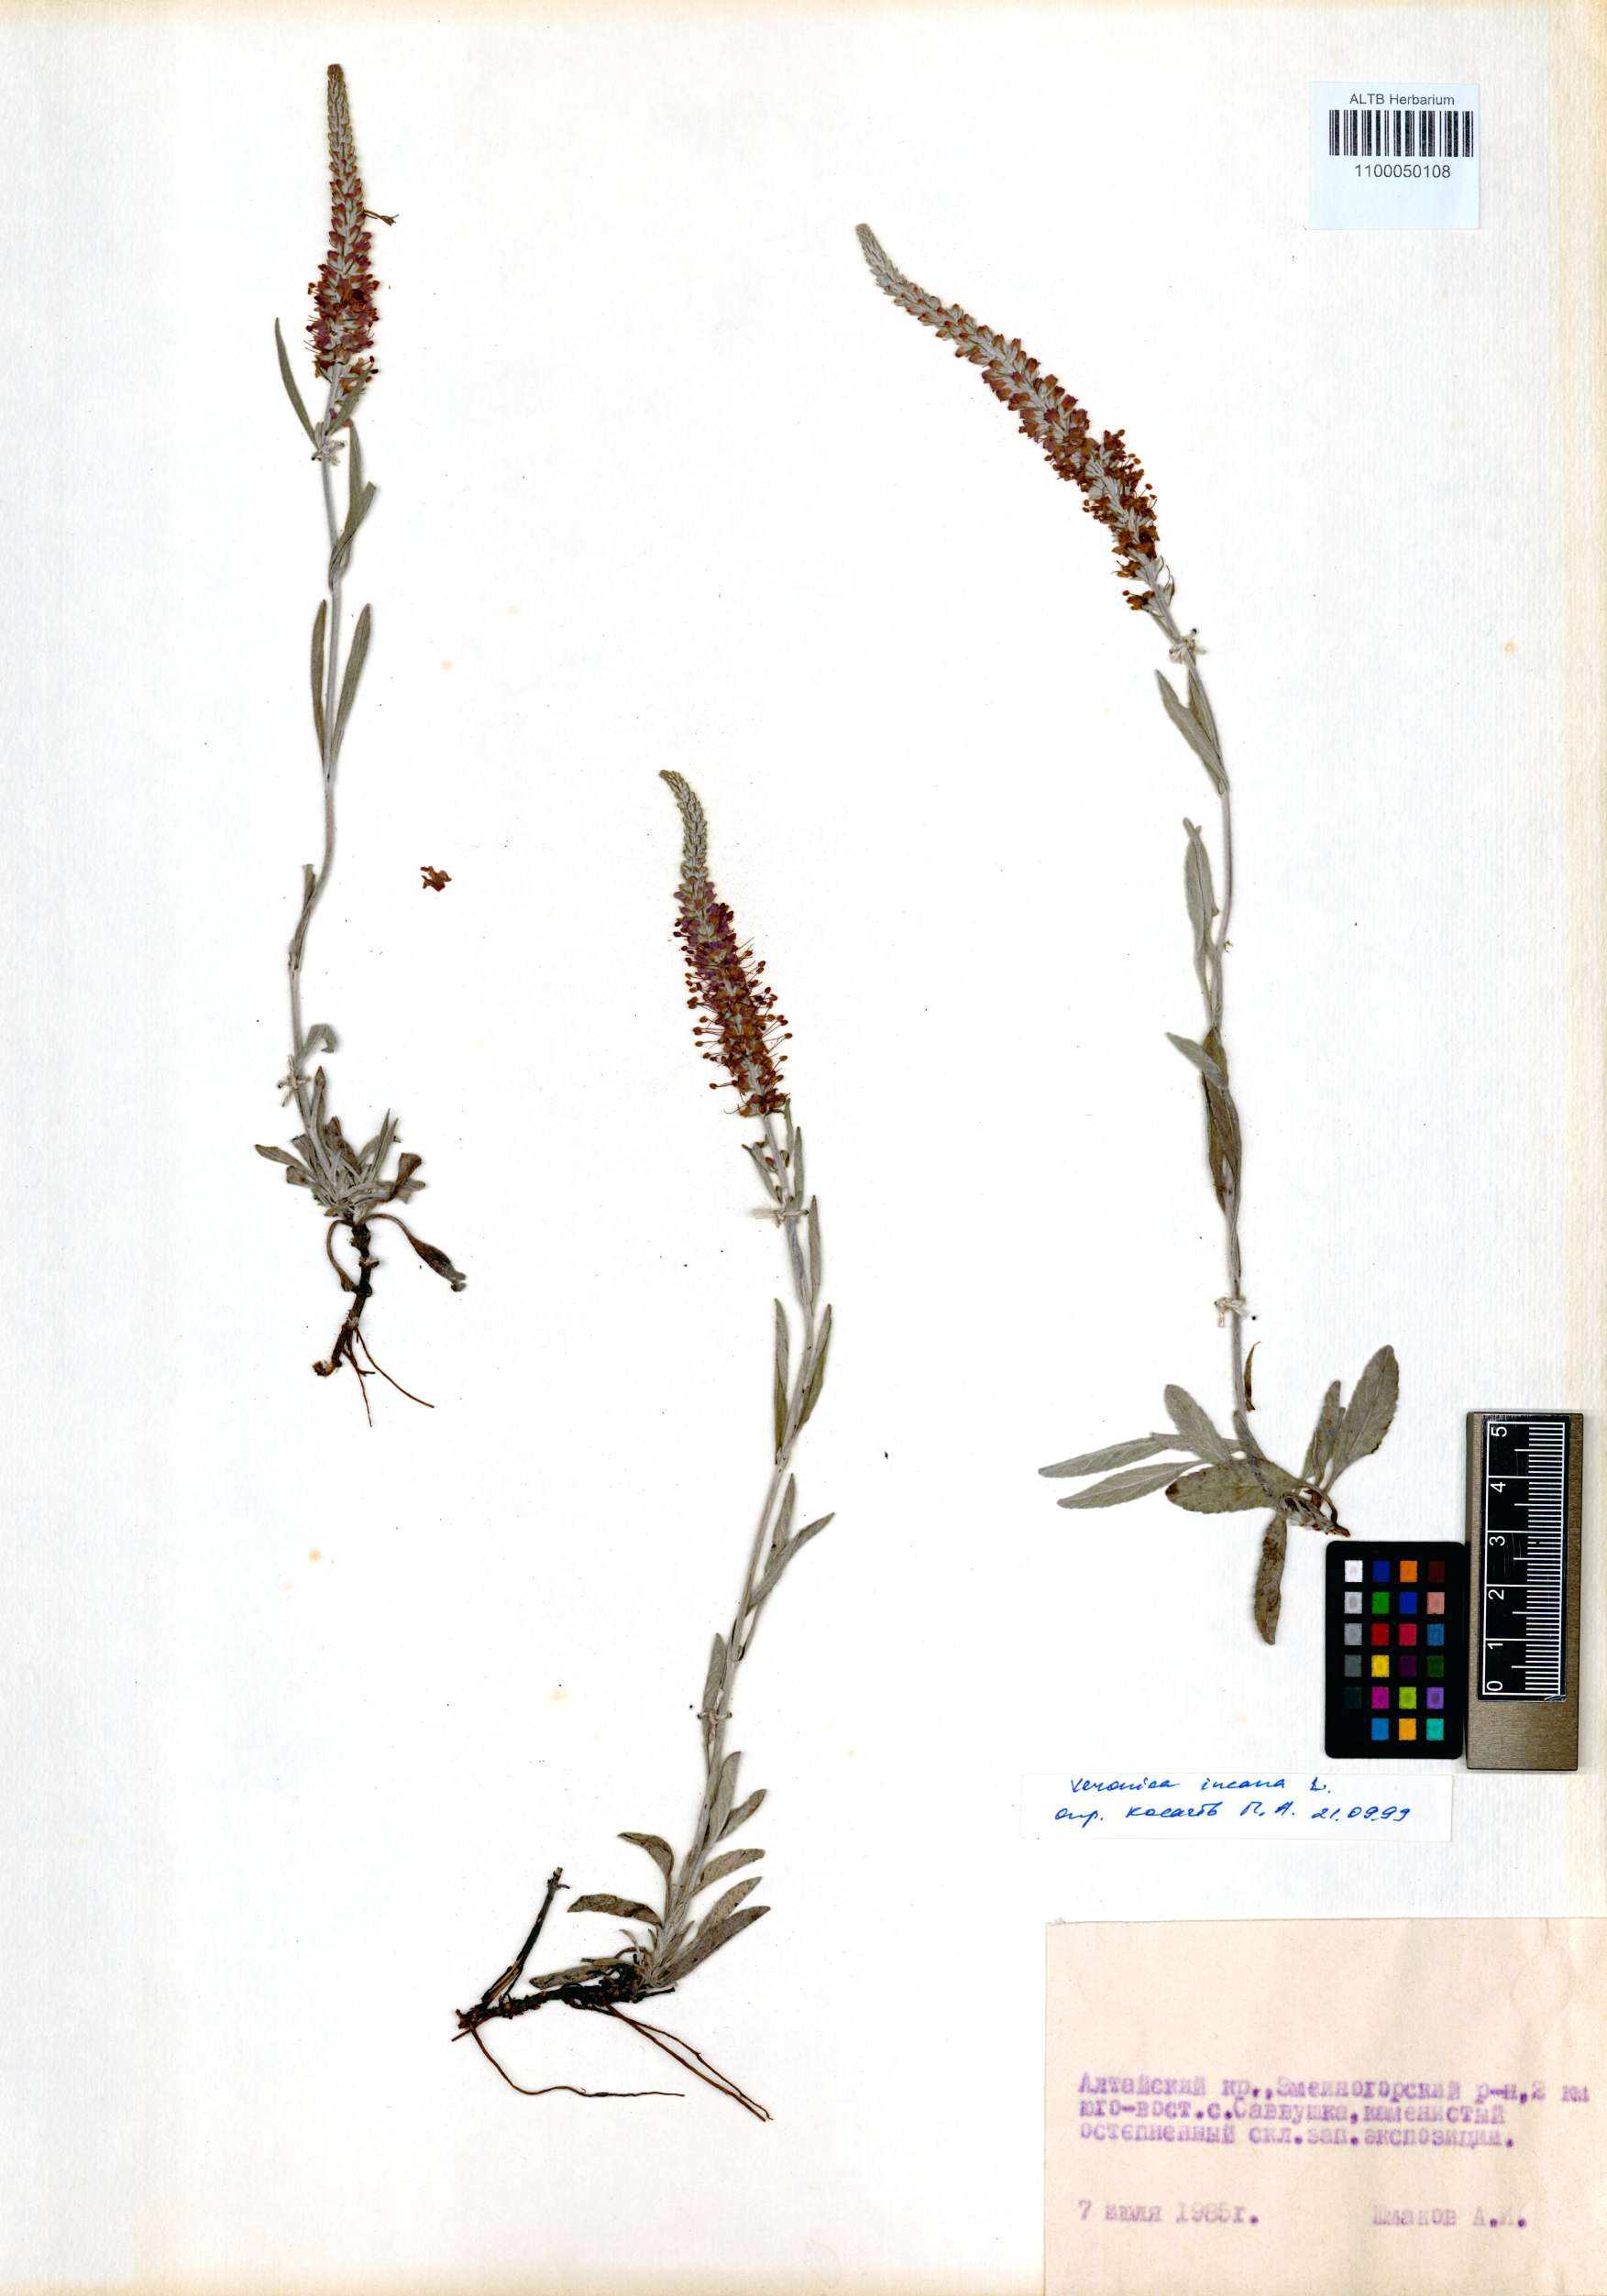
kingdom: Plantae
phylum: Tracheophyta
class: Magnoliopsida
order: Lamiales
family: Plantaginaceae
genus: Veronica
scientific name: Veronica incana
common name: Silver speedwell
